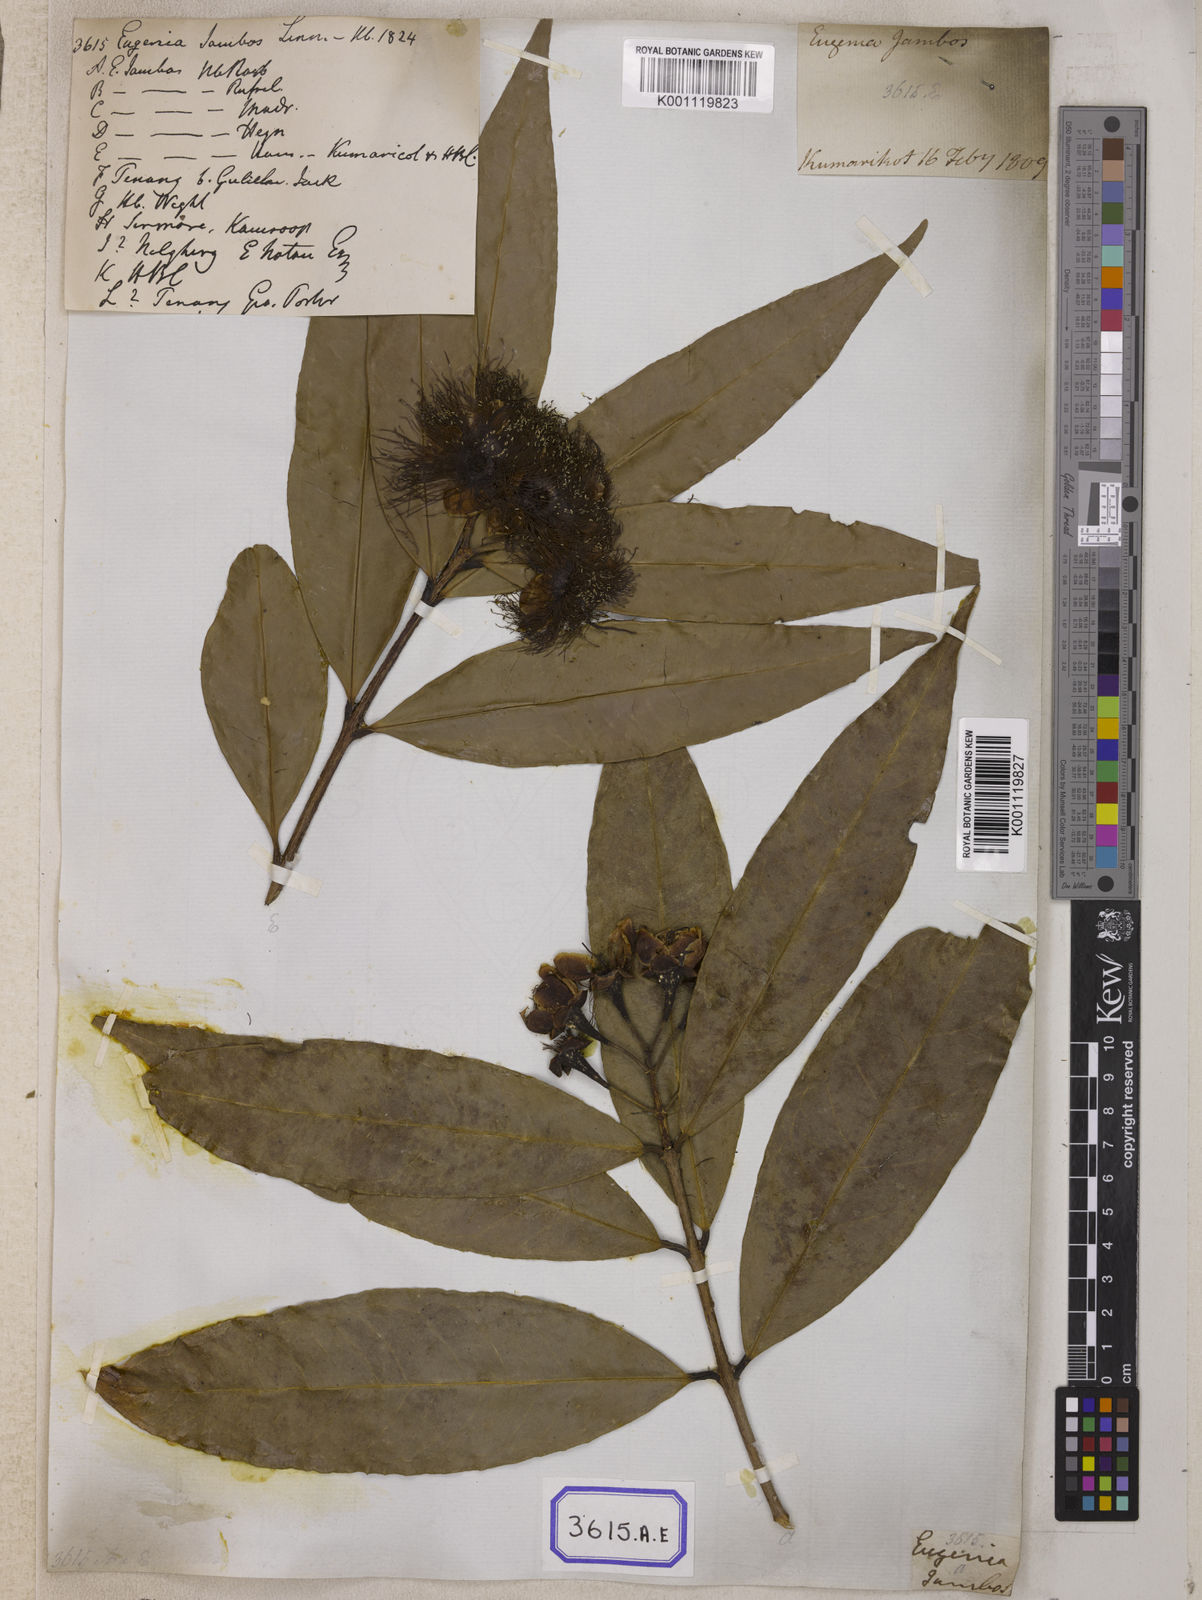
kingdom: Plantae
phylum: Tracheophyta
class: Magnoliopsida
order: Myrtales
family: Myrtaceae
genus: Syzygium
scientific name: Syzygium jambos
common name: Malabar plum
